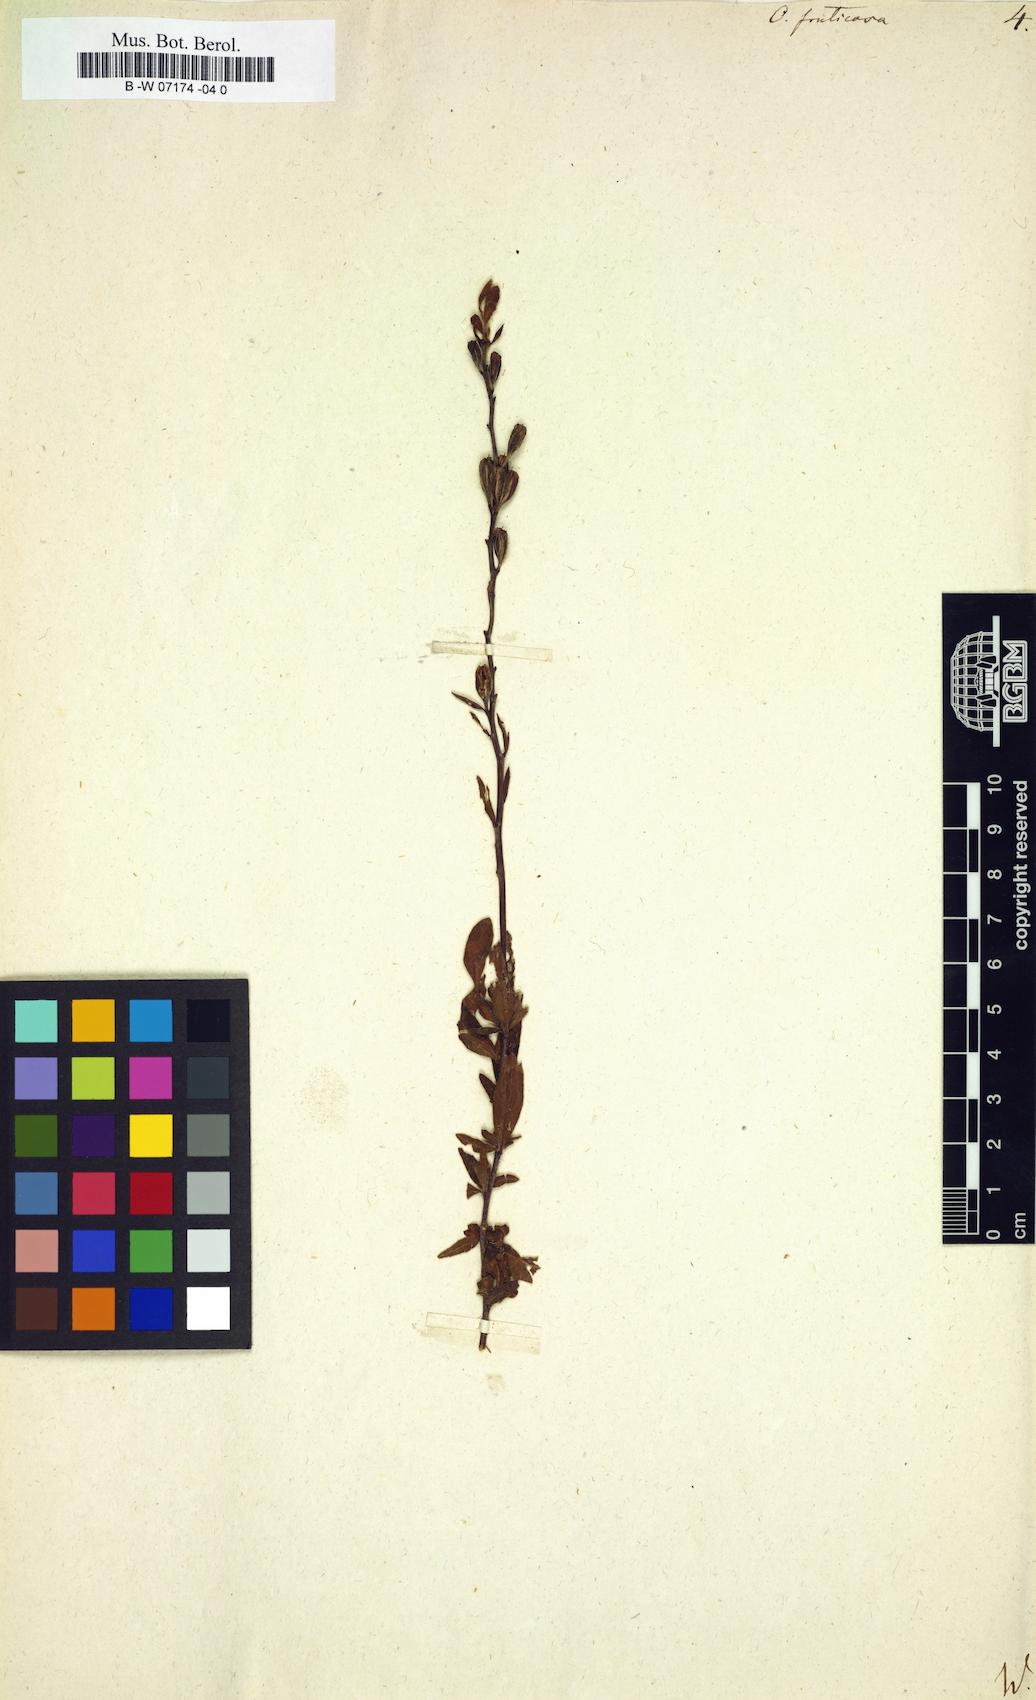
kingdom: Plantae
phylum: Tracheophyta
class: Magnoliopsida
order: Myrtales
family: Onagraceae
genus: Oenothera
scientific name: Oenothera fruticosa
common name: Southern sundrops
